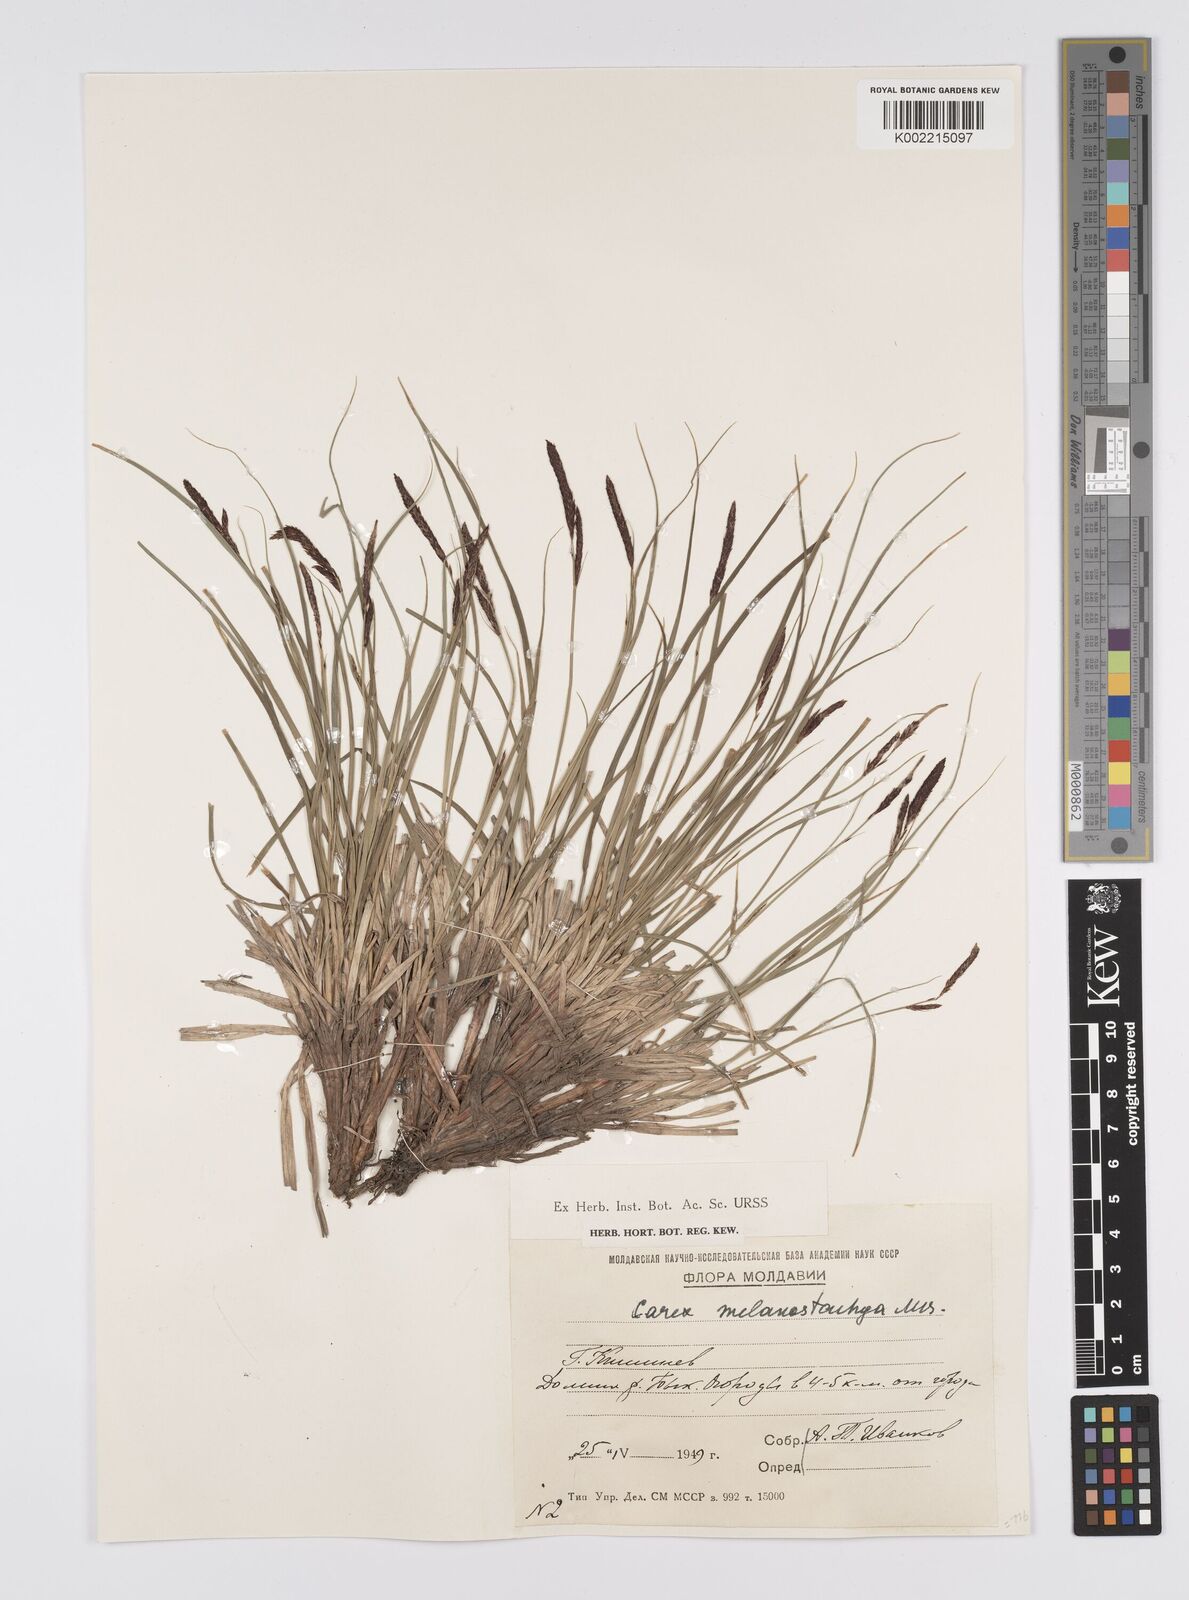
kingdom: Plantae
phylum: Tracheophyta
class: Liliopsida
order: Poales
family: Cyperaceae
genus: Carex
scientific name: Carex melanostachya
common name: Black-spiked sedge
